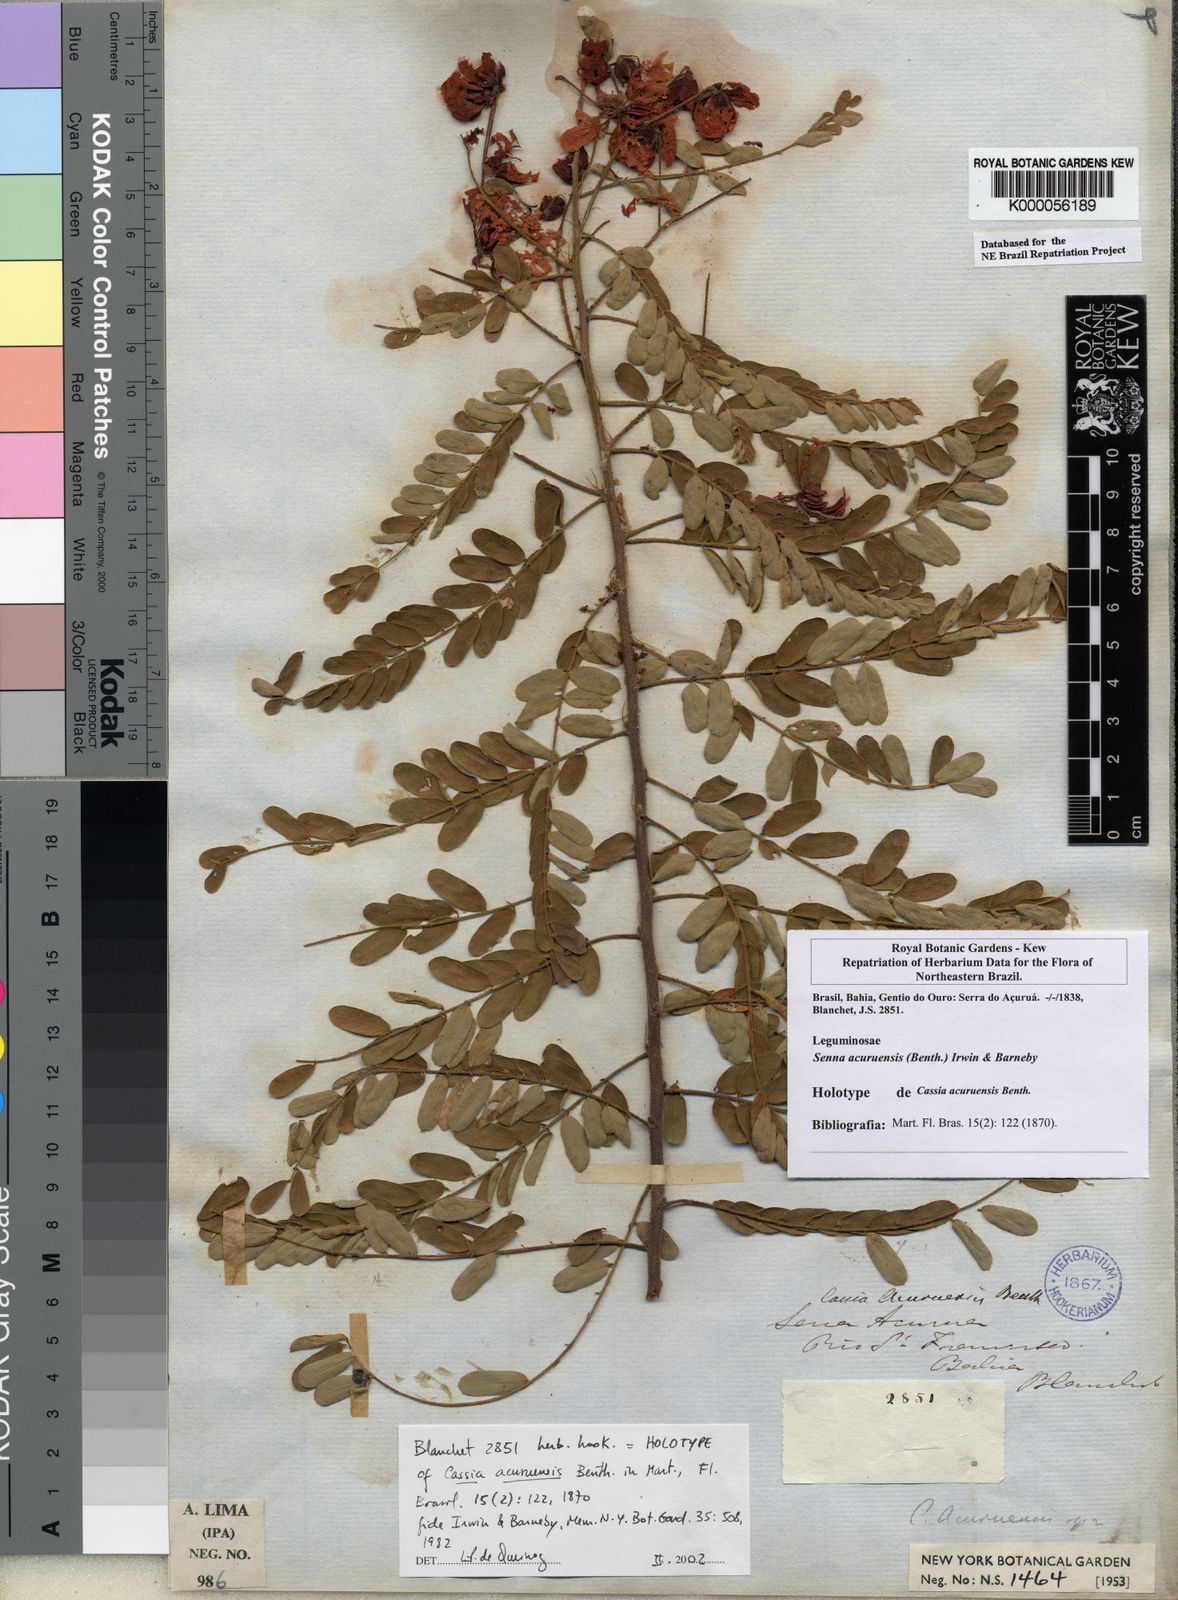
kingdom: Plantae
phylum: Tracheophyta
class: Magnoliopsida
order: Fabales
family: Fabaceae
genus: Senna
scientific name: Senna acuruensis
